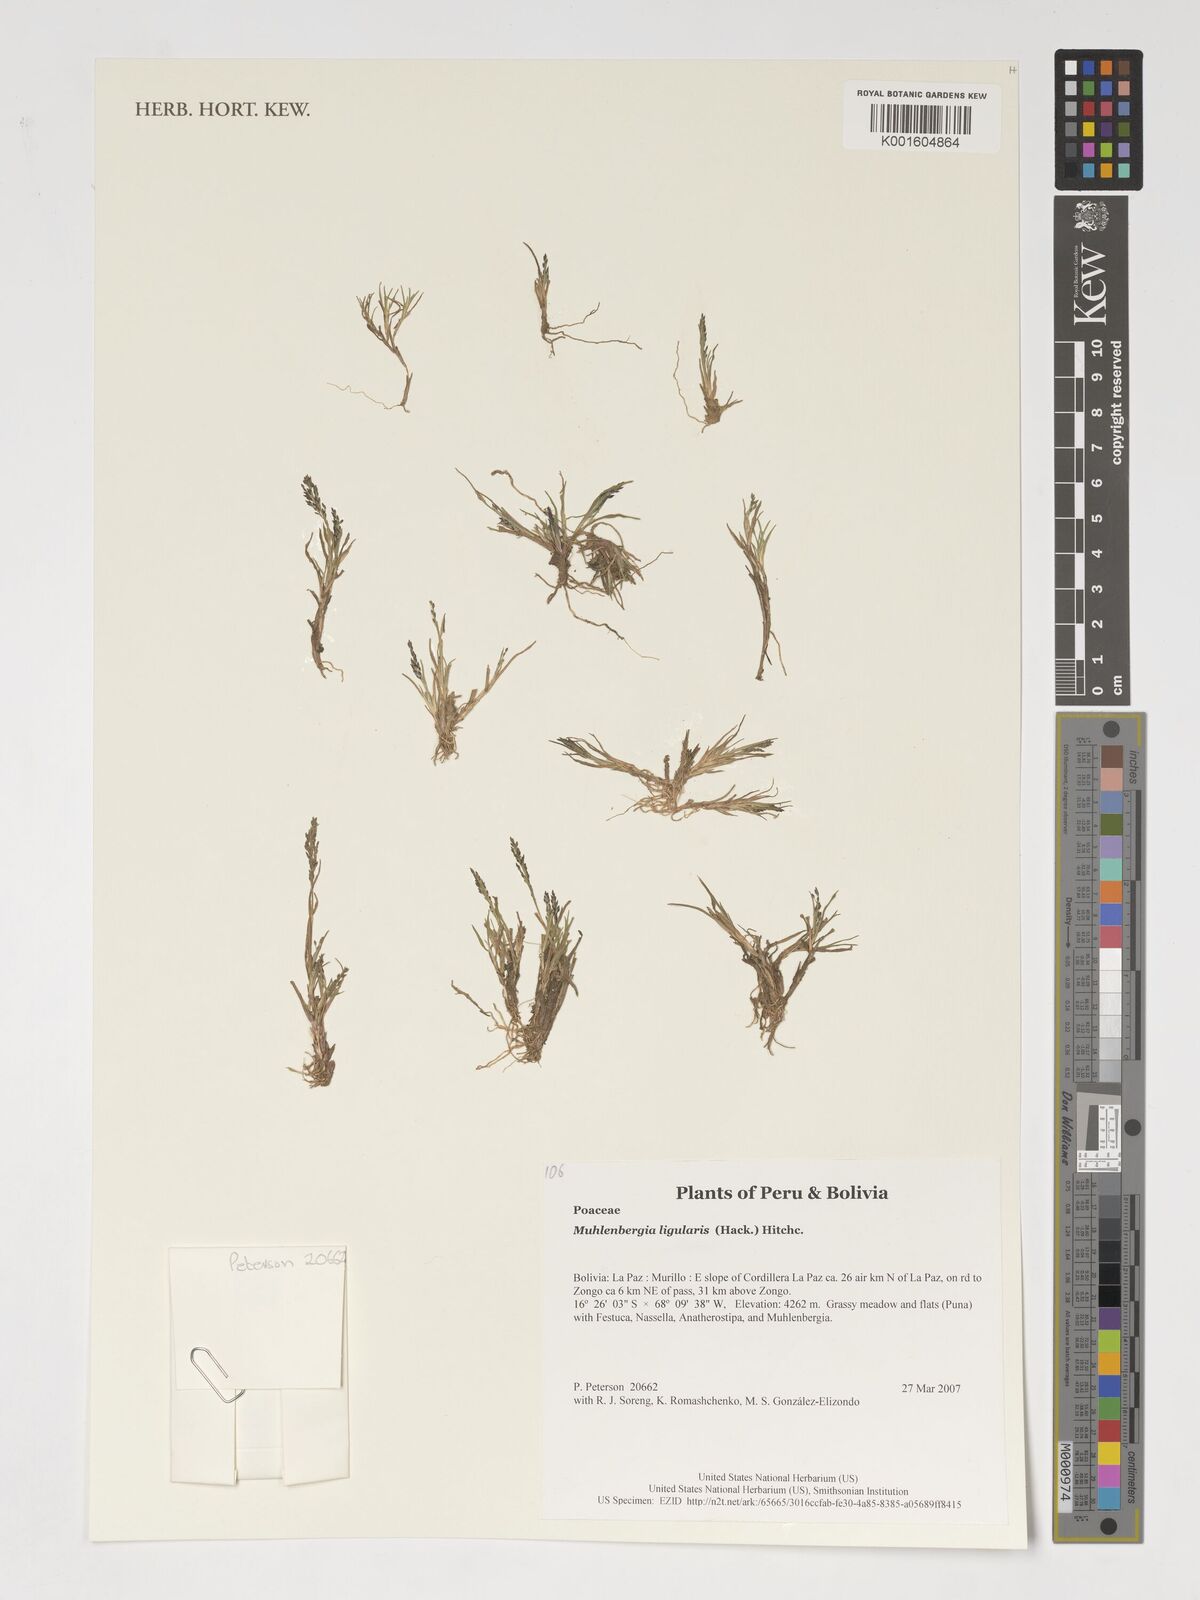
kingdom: Plantae
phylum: Tracheophyta
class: Liliopsida
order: Poales
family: Poaceae
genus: Muhlenbergia
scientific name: Muhlenbergia ligularis
